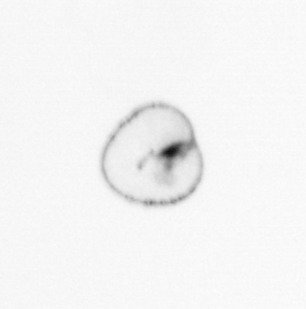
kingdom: Chromista
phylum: Myzozoa
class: Dinophyceae
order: Noctilucales
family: Noctilucaceae
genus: Noctiluca
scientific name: Noctiluca scintillans
